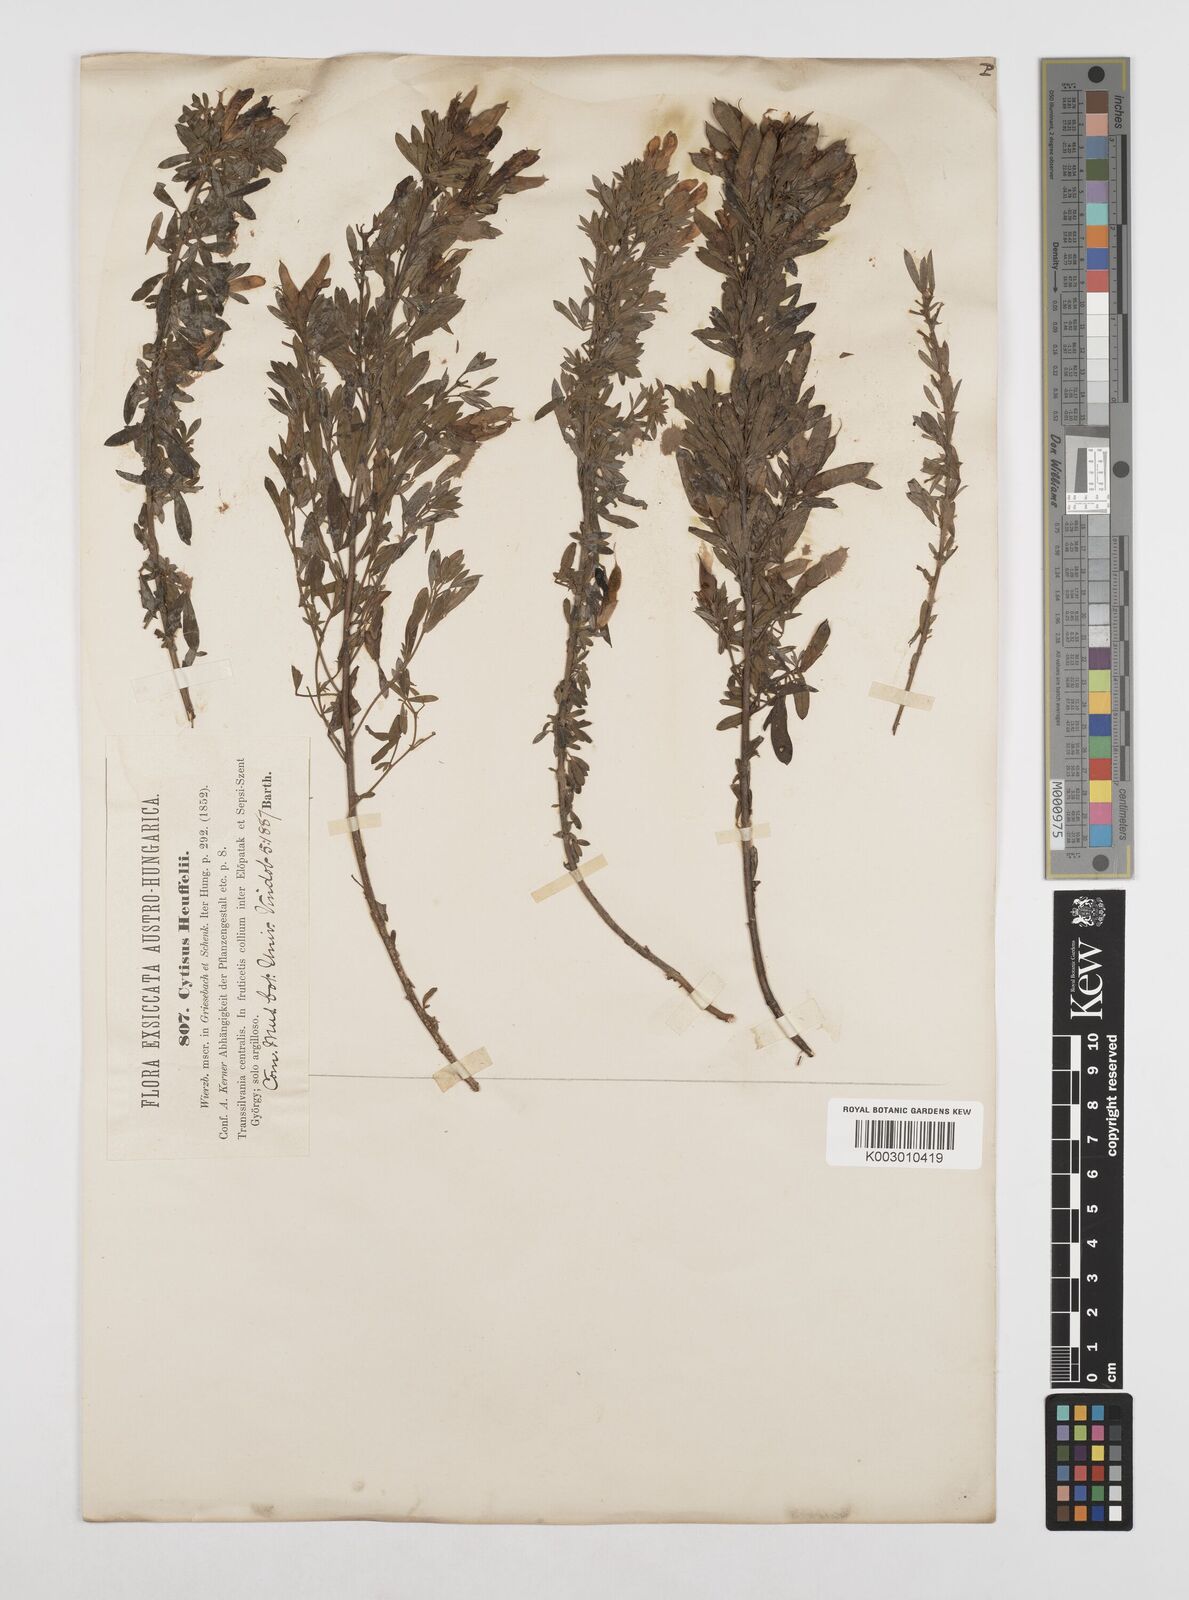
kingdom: Plantae
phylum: Tracheophyta
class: Magnoliopsida
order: Fabales
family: Fabaceae
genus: Cytisophyllum
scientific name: Cytisophyllum Cytisus heuffelii
